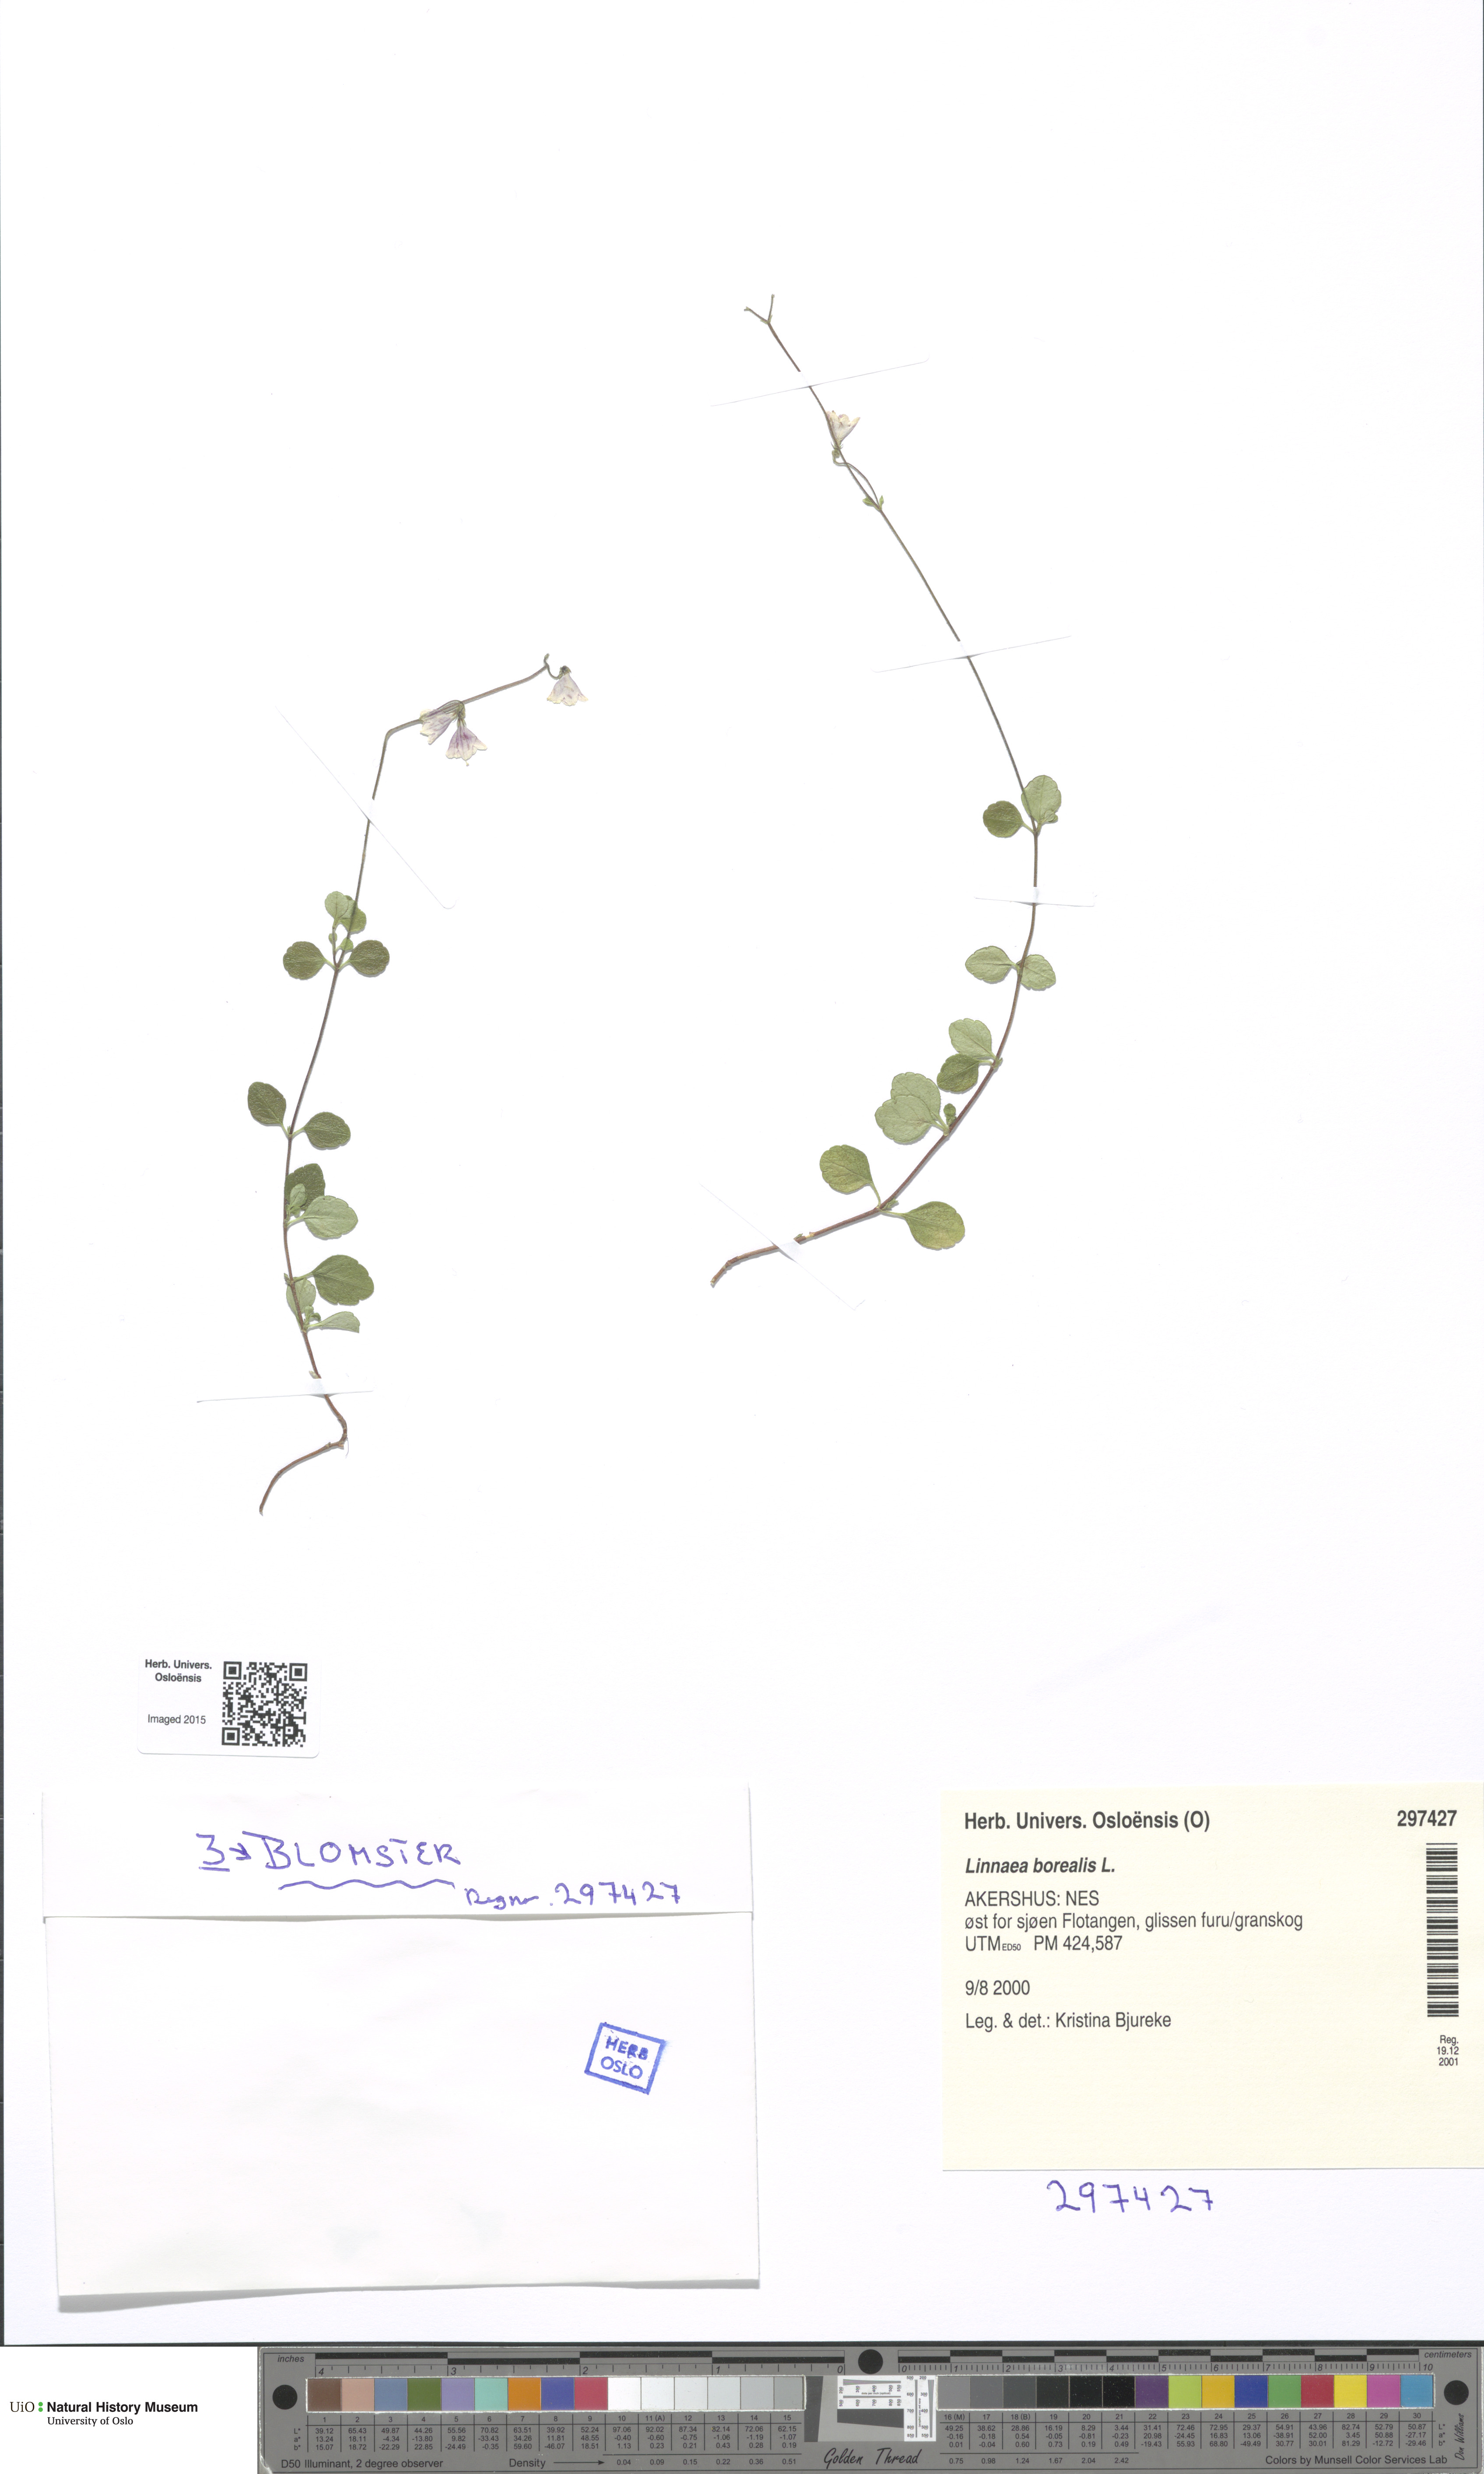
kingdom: Plantae
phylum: Tracheophyta
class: Magnoliopsida
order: Dipsacales
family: Caprifoliaceae
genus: Linnaea
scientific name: Linnaea borealis
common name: Twinflower
